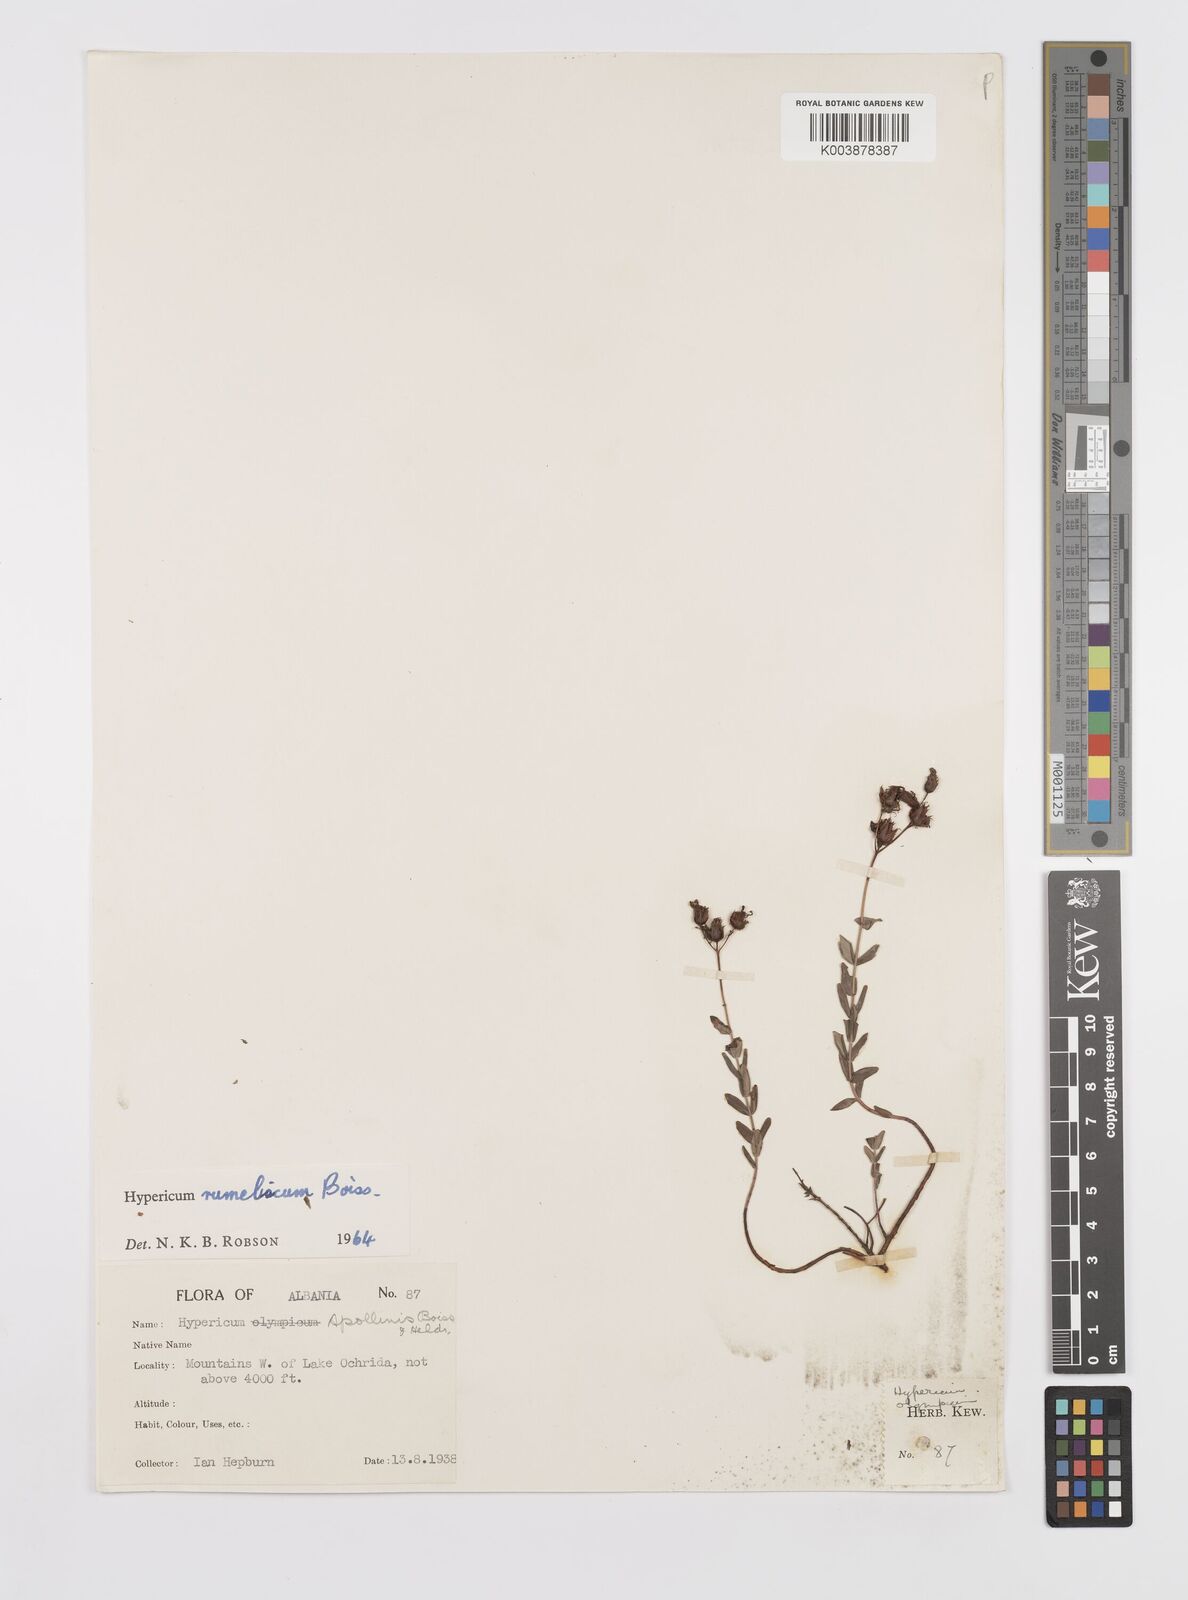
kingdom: Plantae
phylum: Tracheophyta
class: Magnoliopsida
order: Malpighiales
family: Hypericaceae
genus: Hypericum
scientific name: Hypericum rumeliacum
